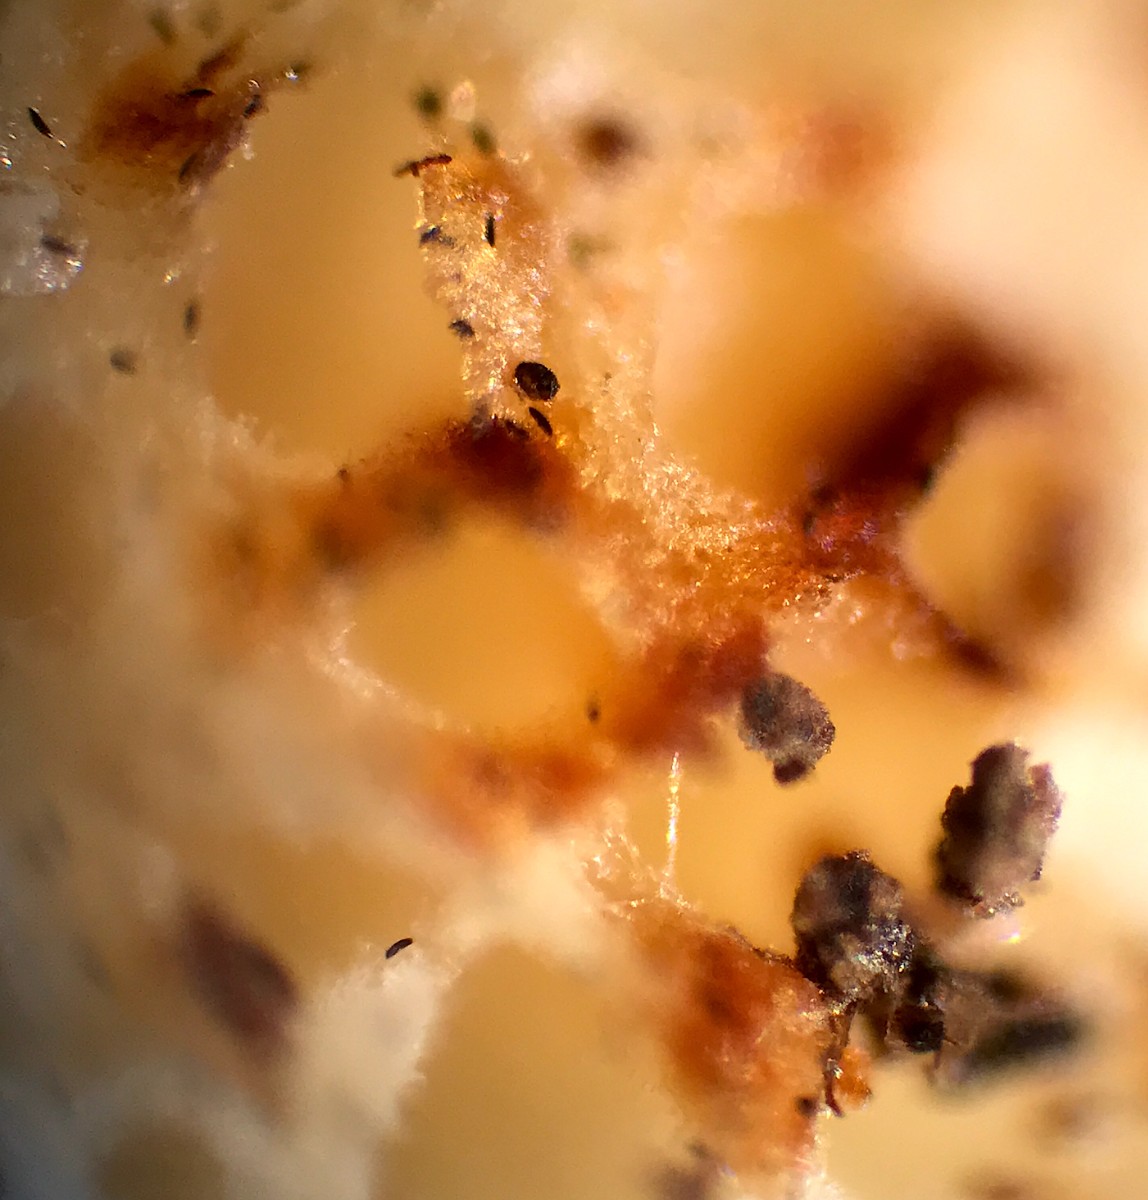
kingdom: Fungi
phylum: Basidiomycota
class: Agaricomycetes
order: Polyporales
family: Meruliaceae
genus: Physisporinus
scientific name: Physisporinus vitreus
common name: mastesvamp
